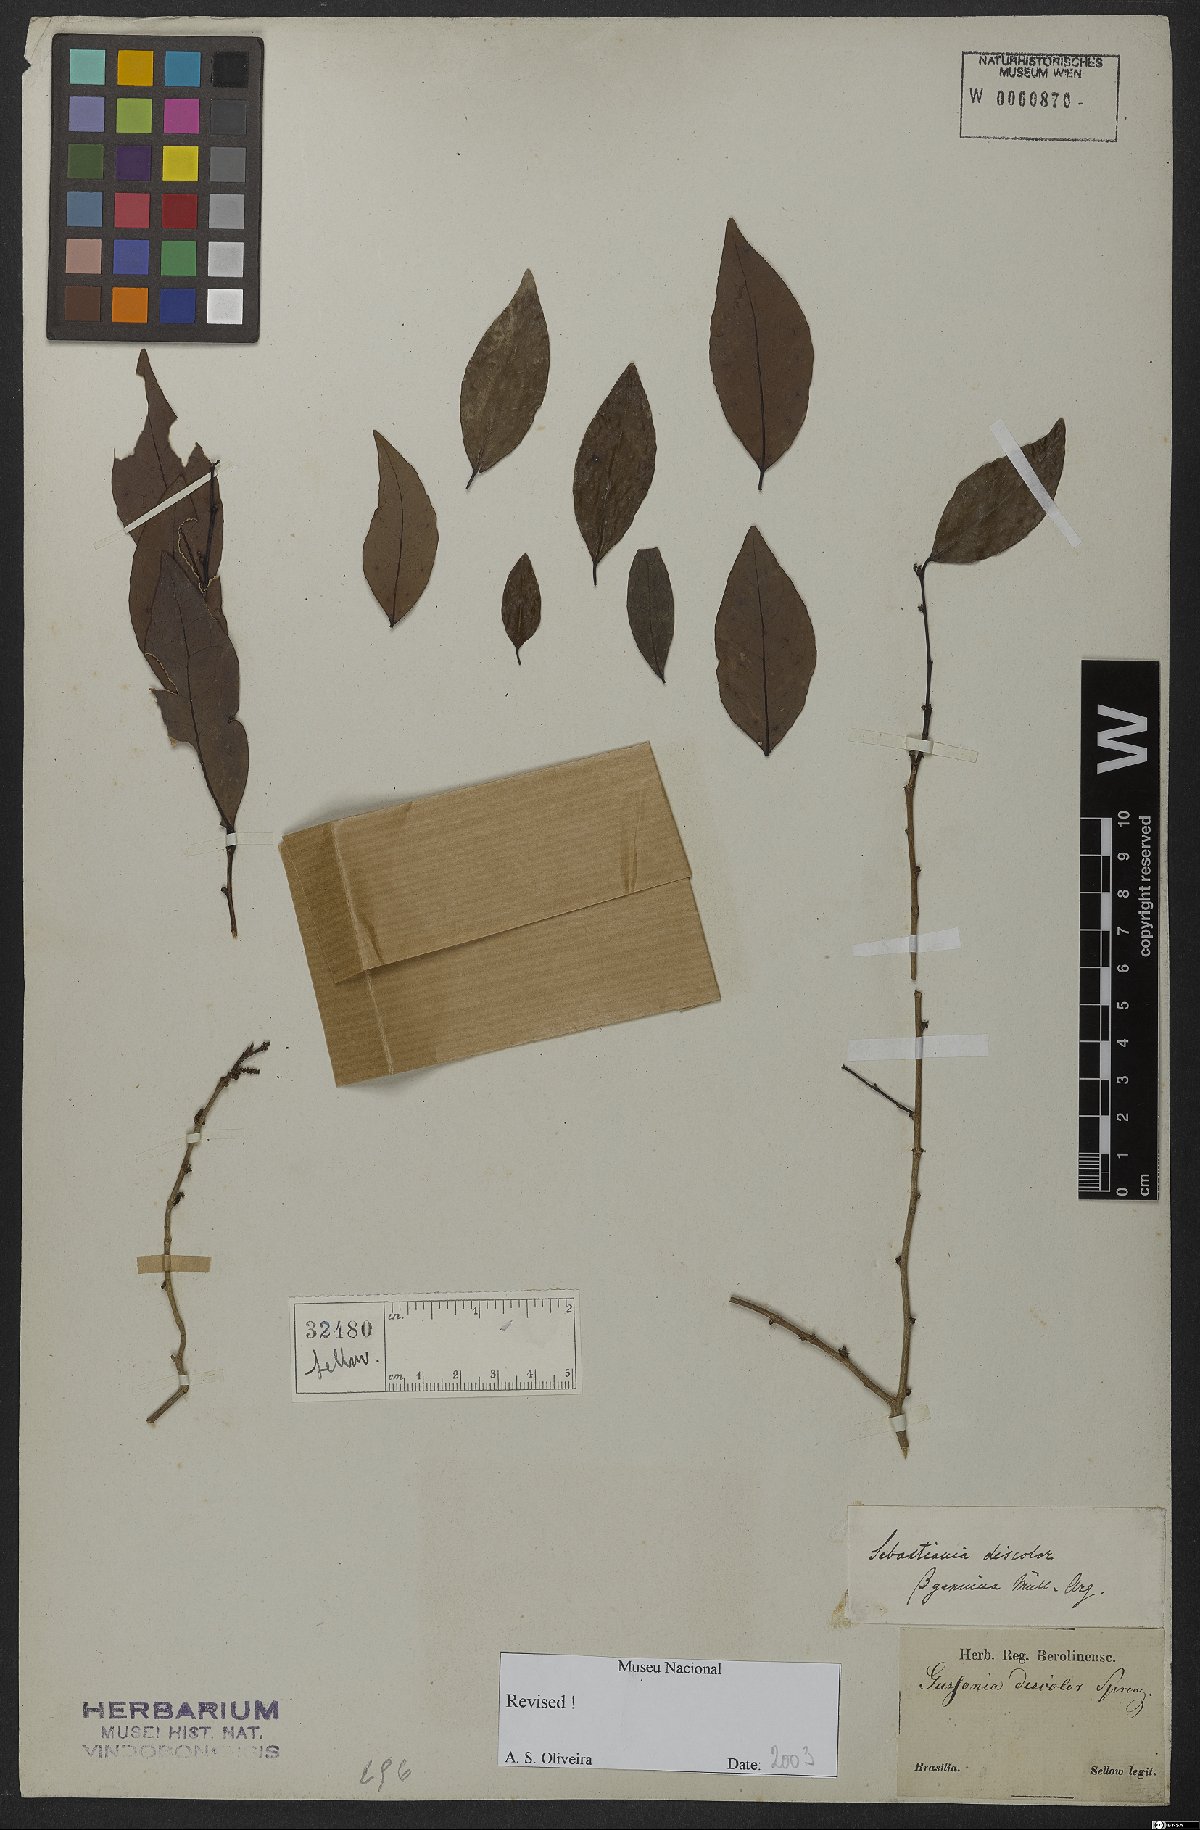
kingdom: Plantae
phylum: Tracheophyta
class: Magnoliopsida
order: Malpighiales
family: Euphorbiaceae
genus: Gymnanthes
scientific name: Gymnanthes discolor
